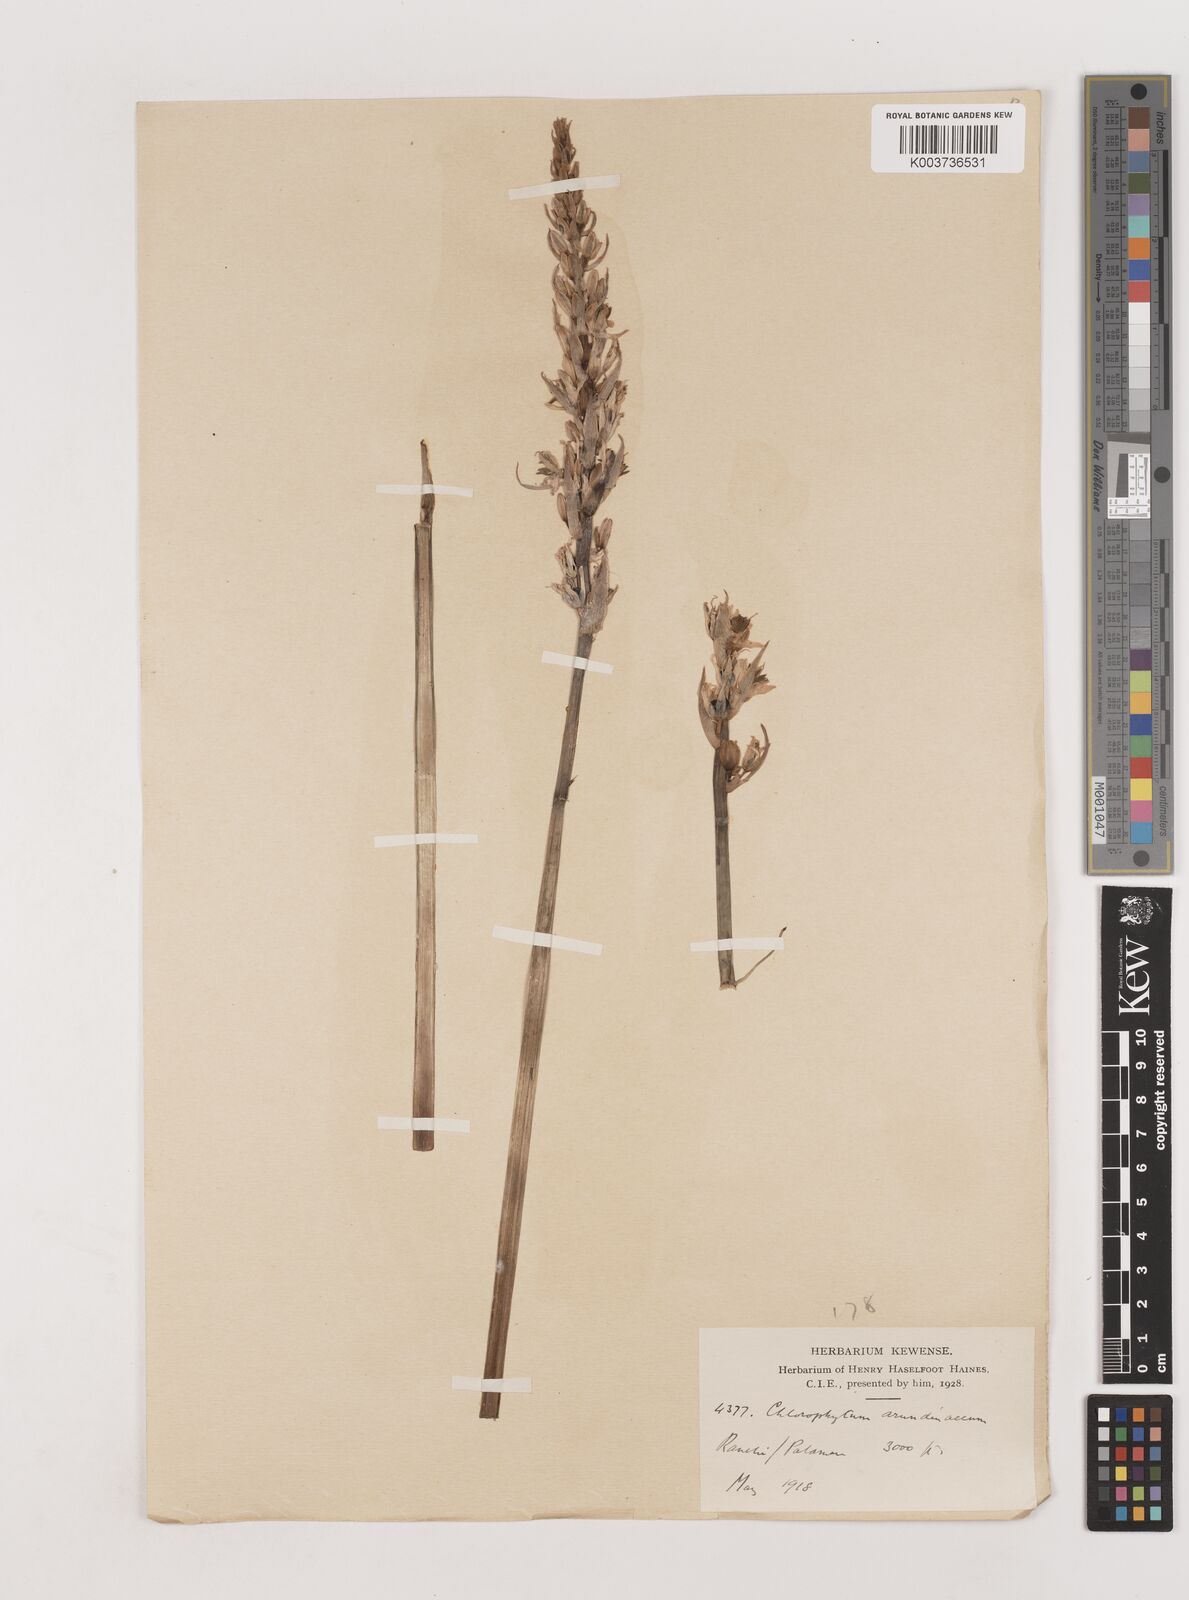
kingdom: Plantae
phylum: Tracheophyta
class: Liliopsida
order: Asparagales
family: Asparagaceae
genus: Chlorophytum
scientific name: Chlorophytum arundinaceum
